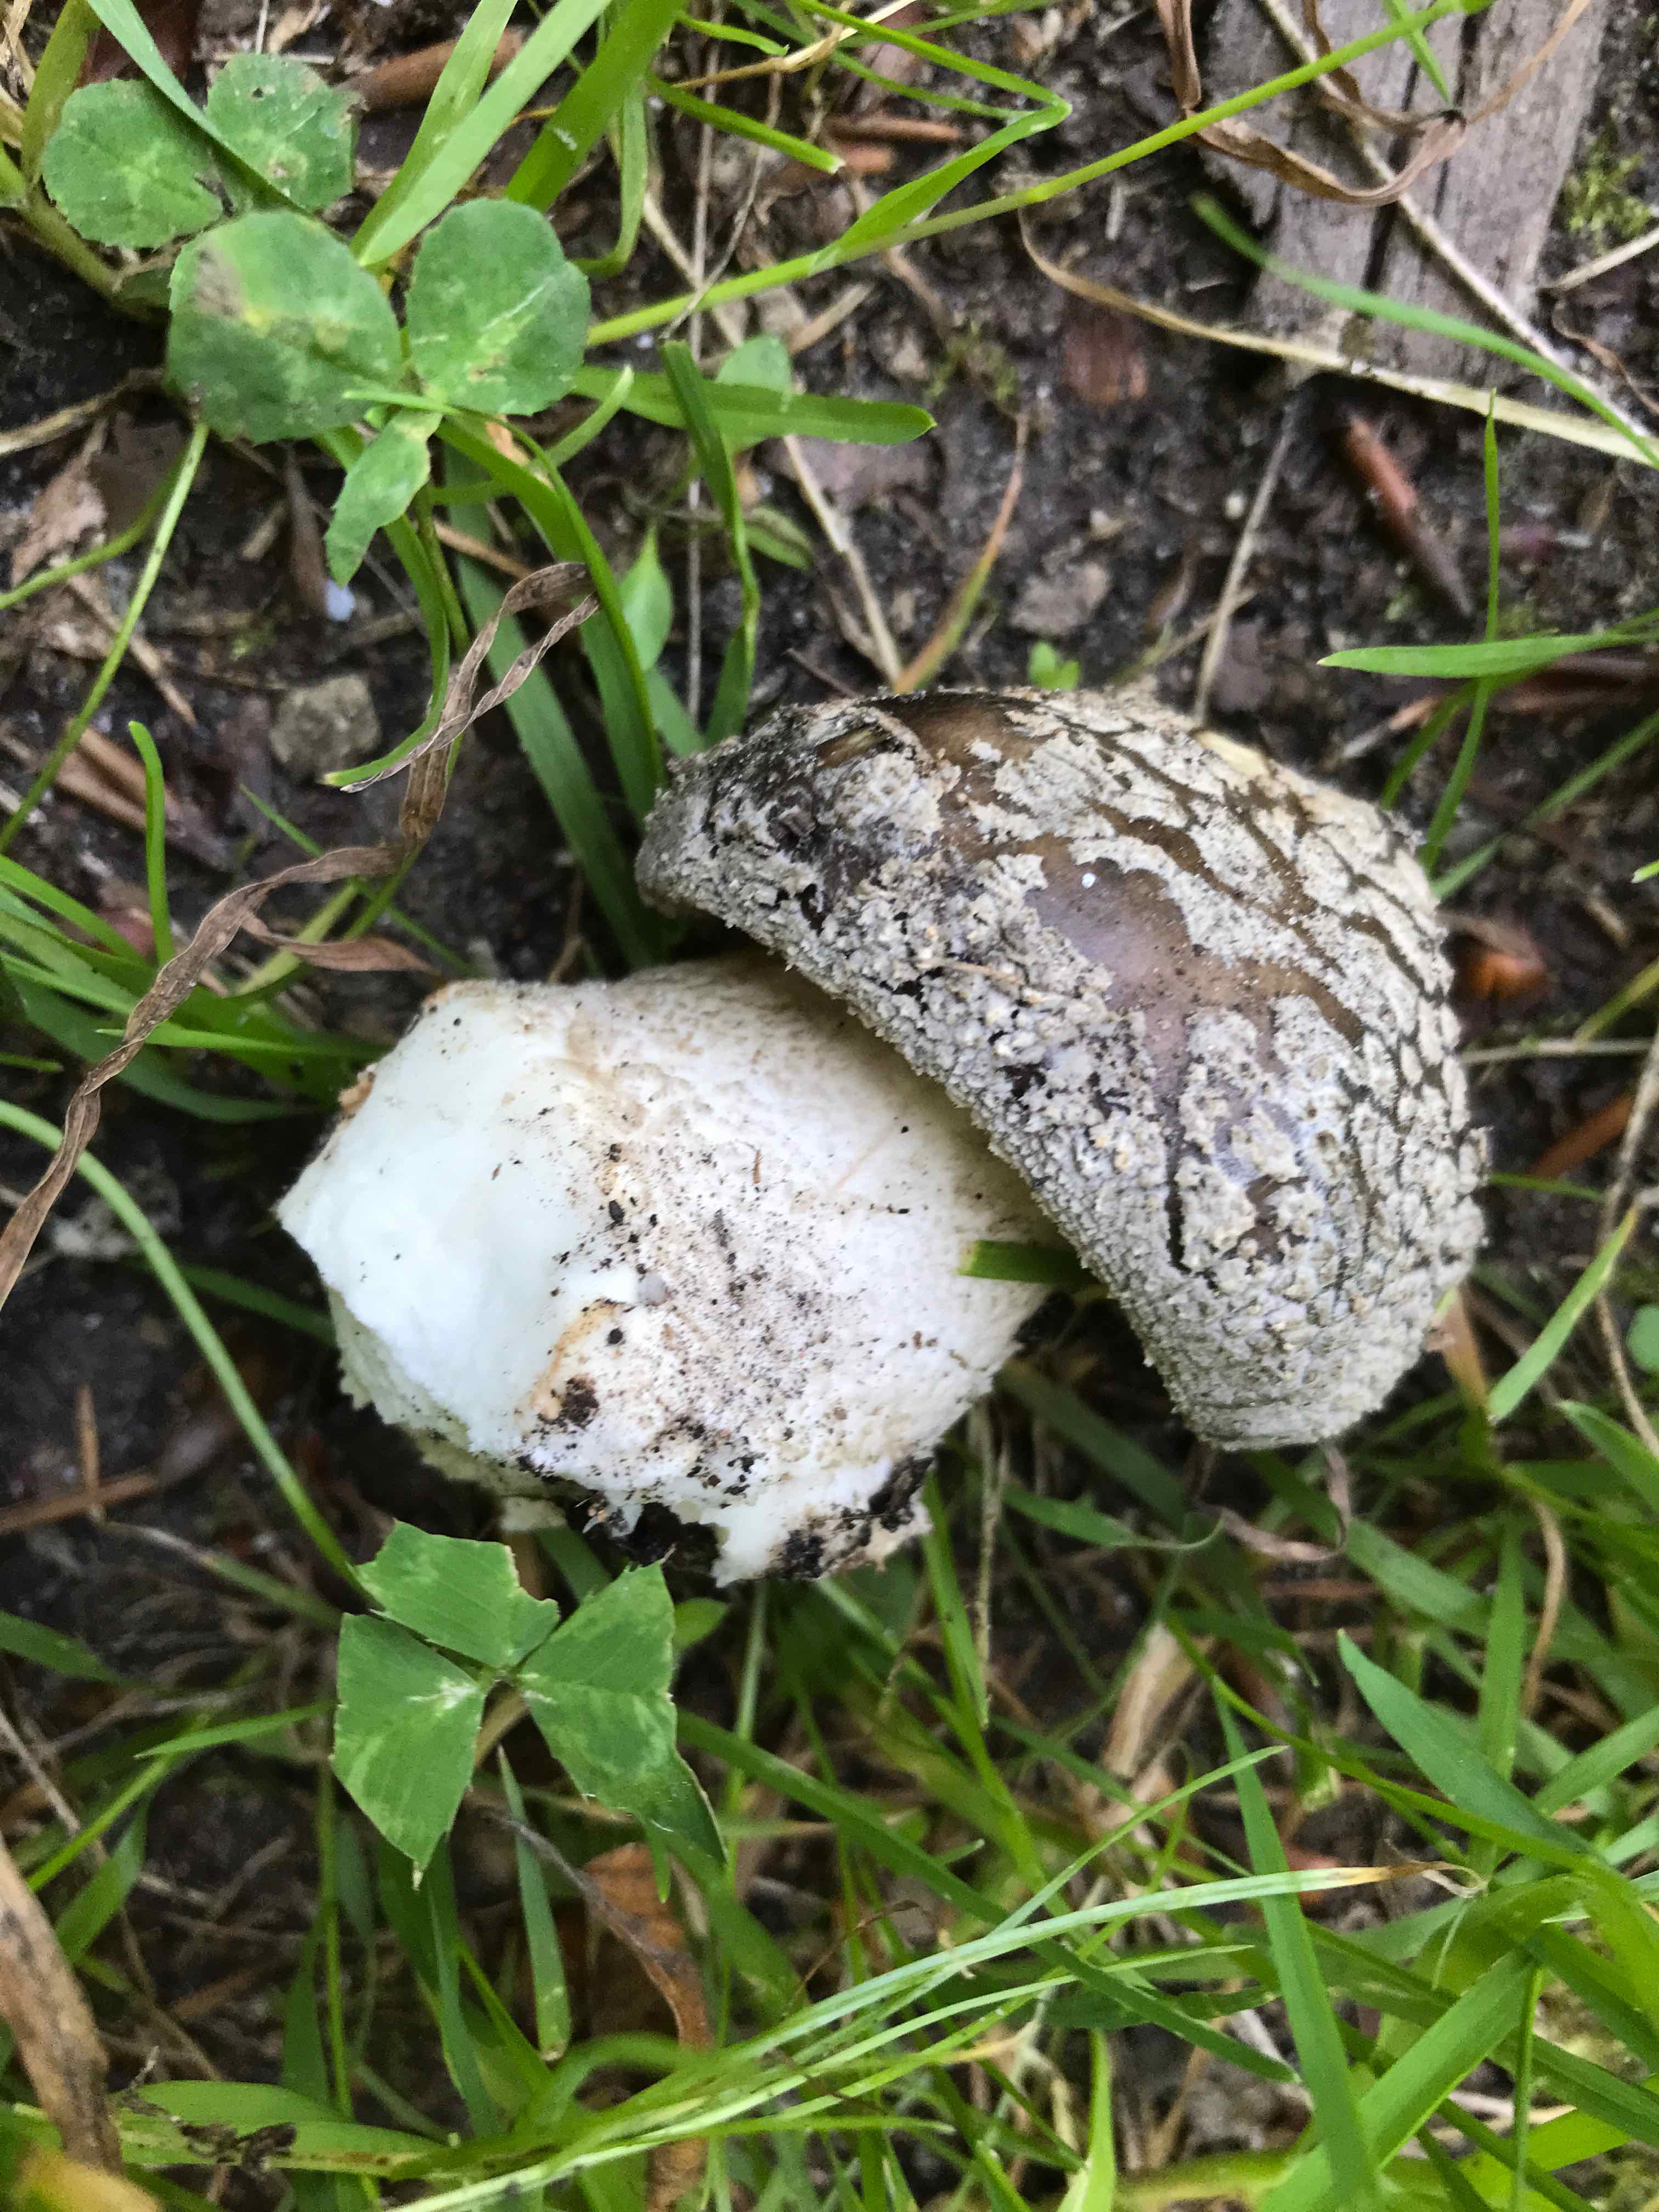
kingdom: Fungi
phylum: Basidiomycota
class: Agaricomycetes
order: Agaricales
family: Amanitaceae
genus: Amanita
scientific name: Amanita
